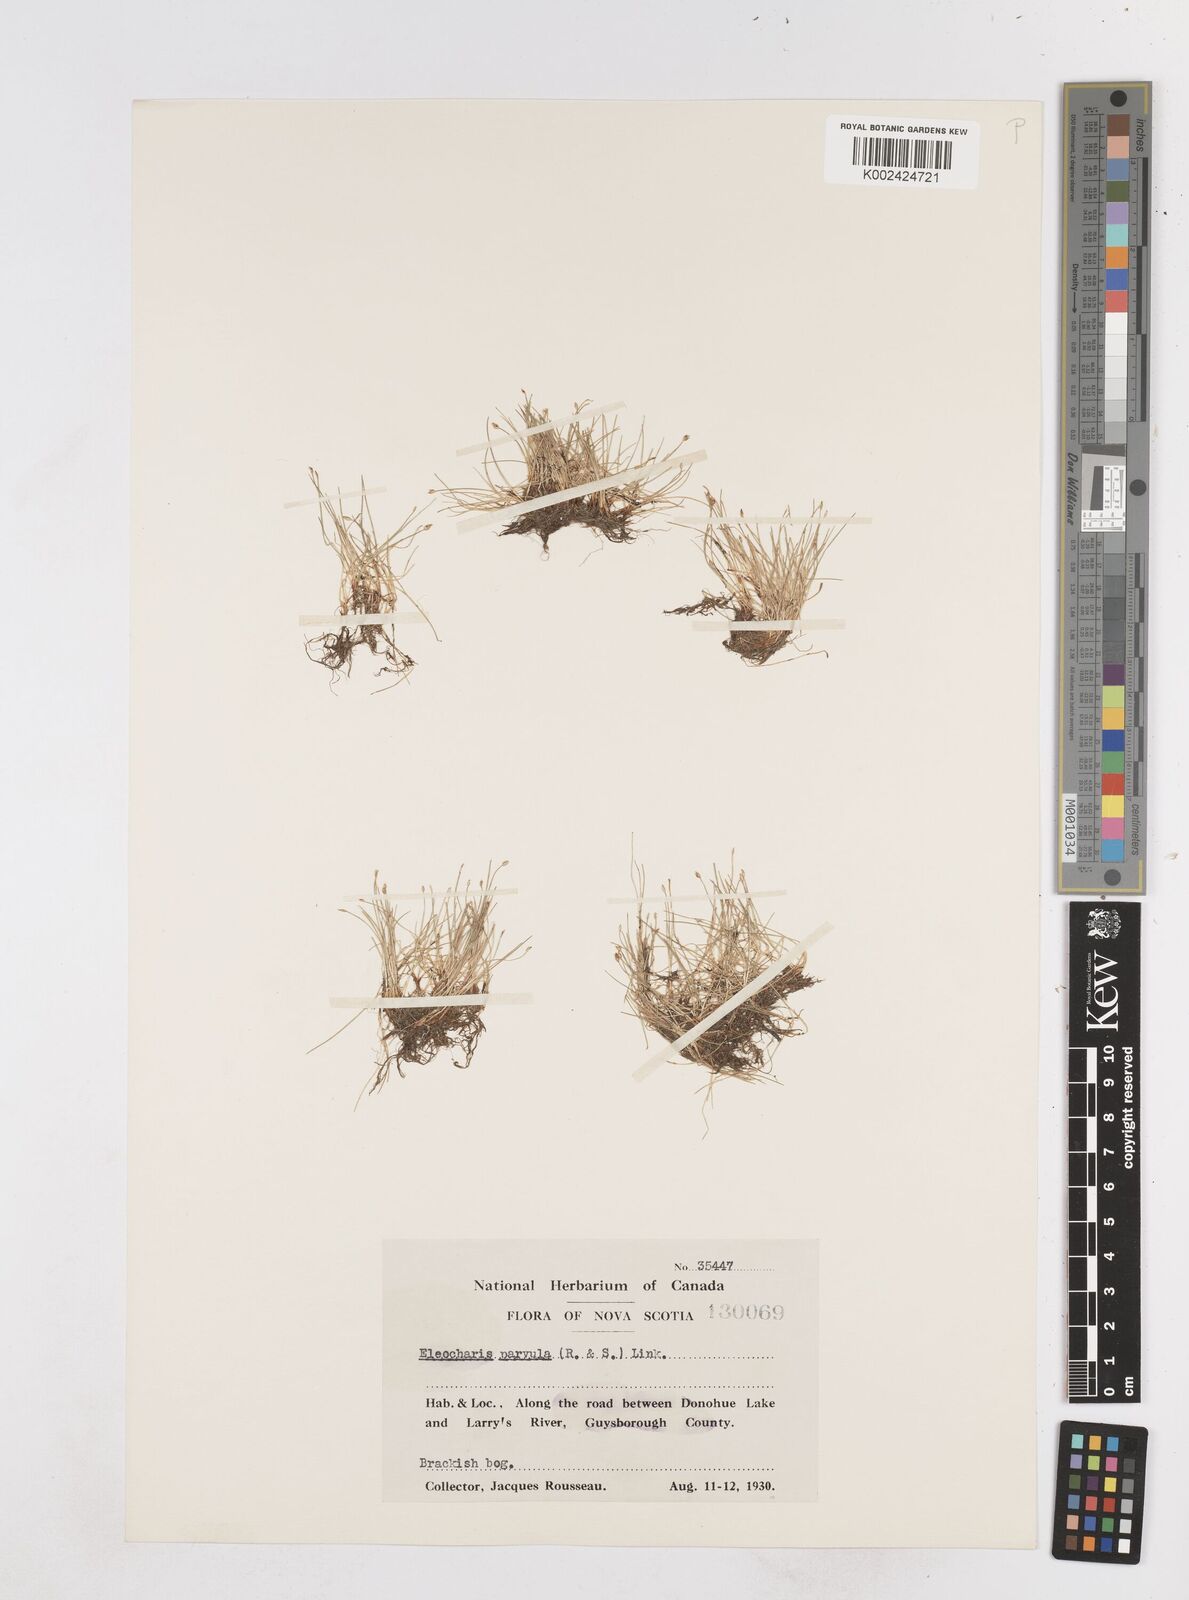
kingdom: Plantae
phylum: Tracheophyta
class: Liliopsida
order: Poales
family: Cyperaceae
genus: Eleocharis
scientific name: Eleocharis parvula
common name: Dwarf spike-rush
